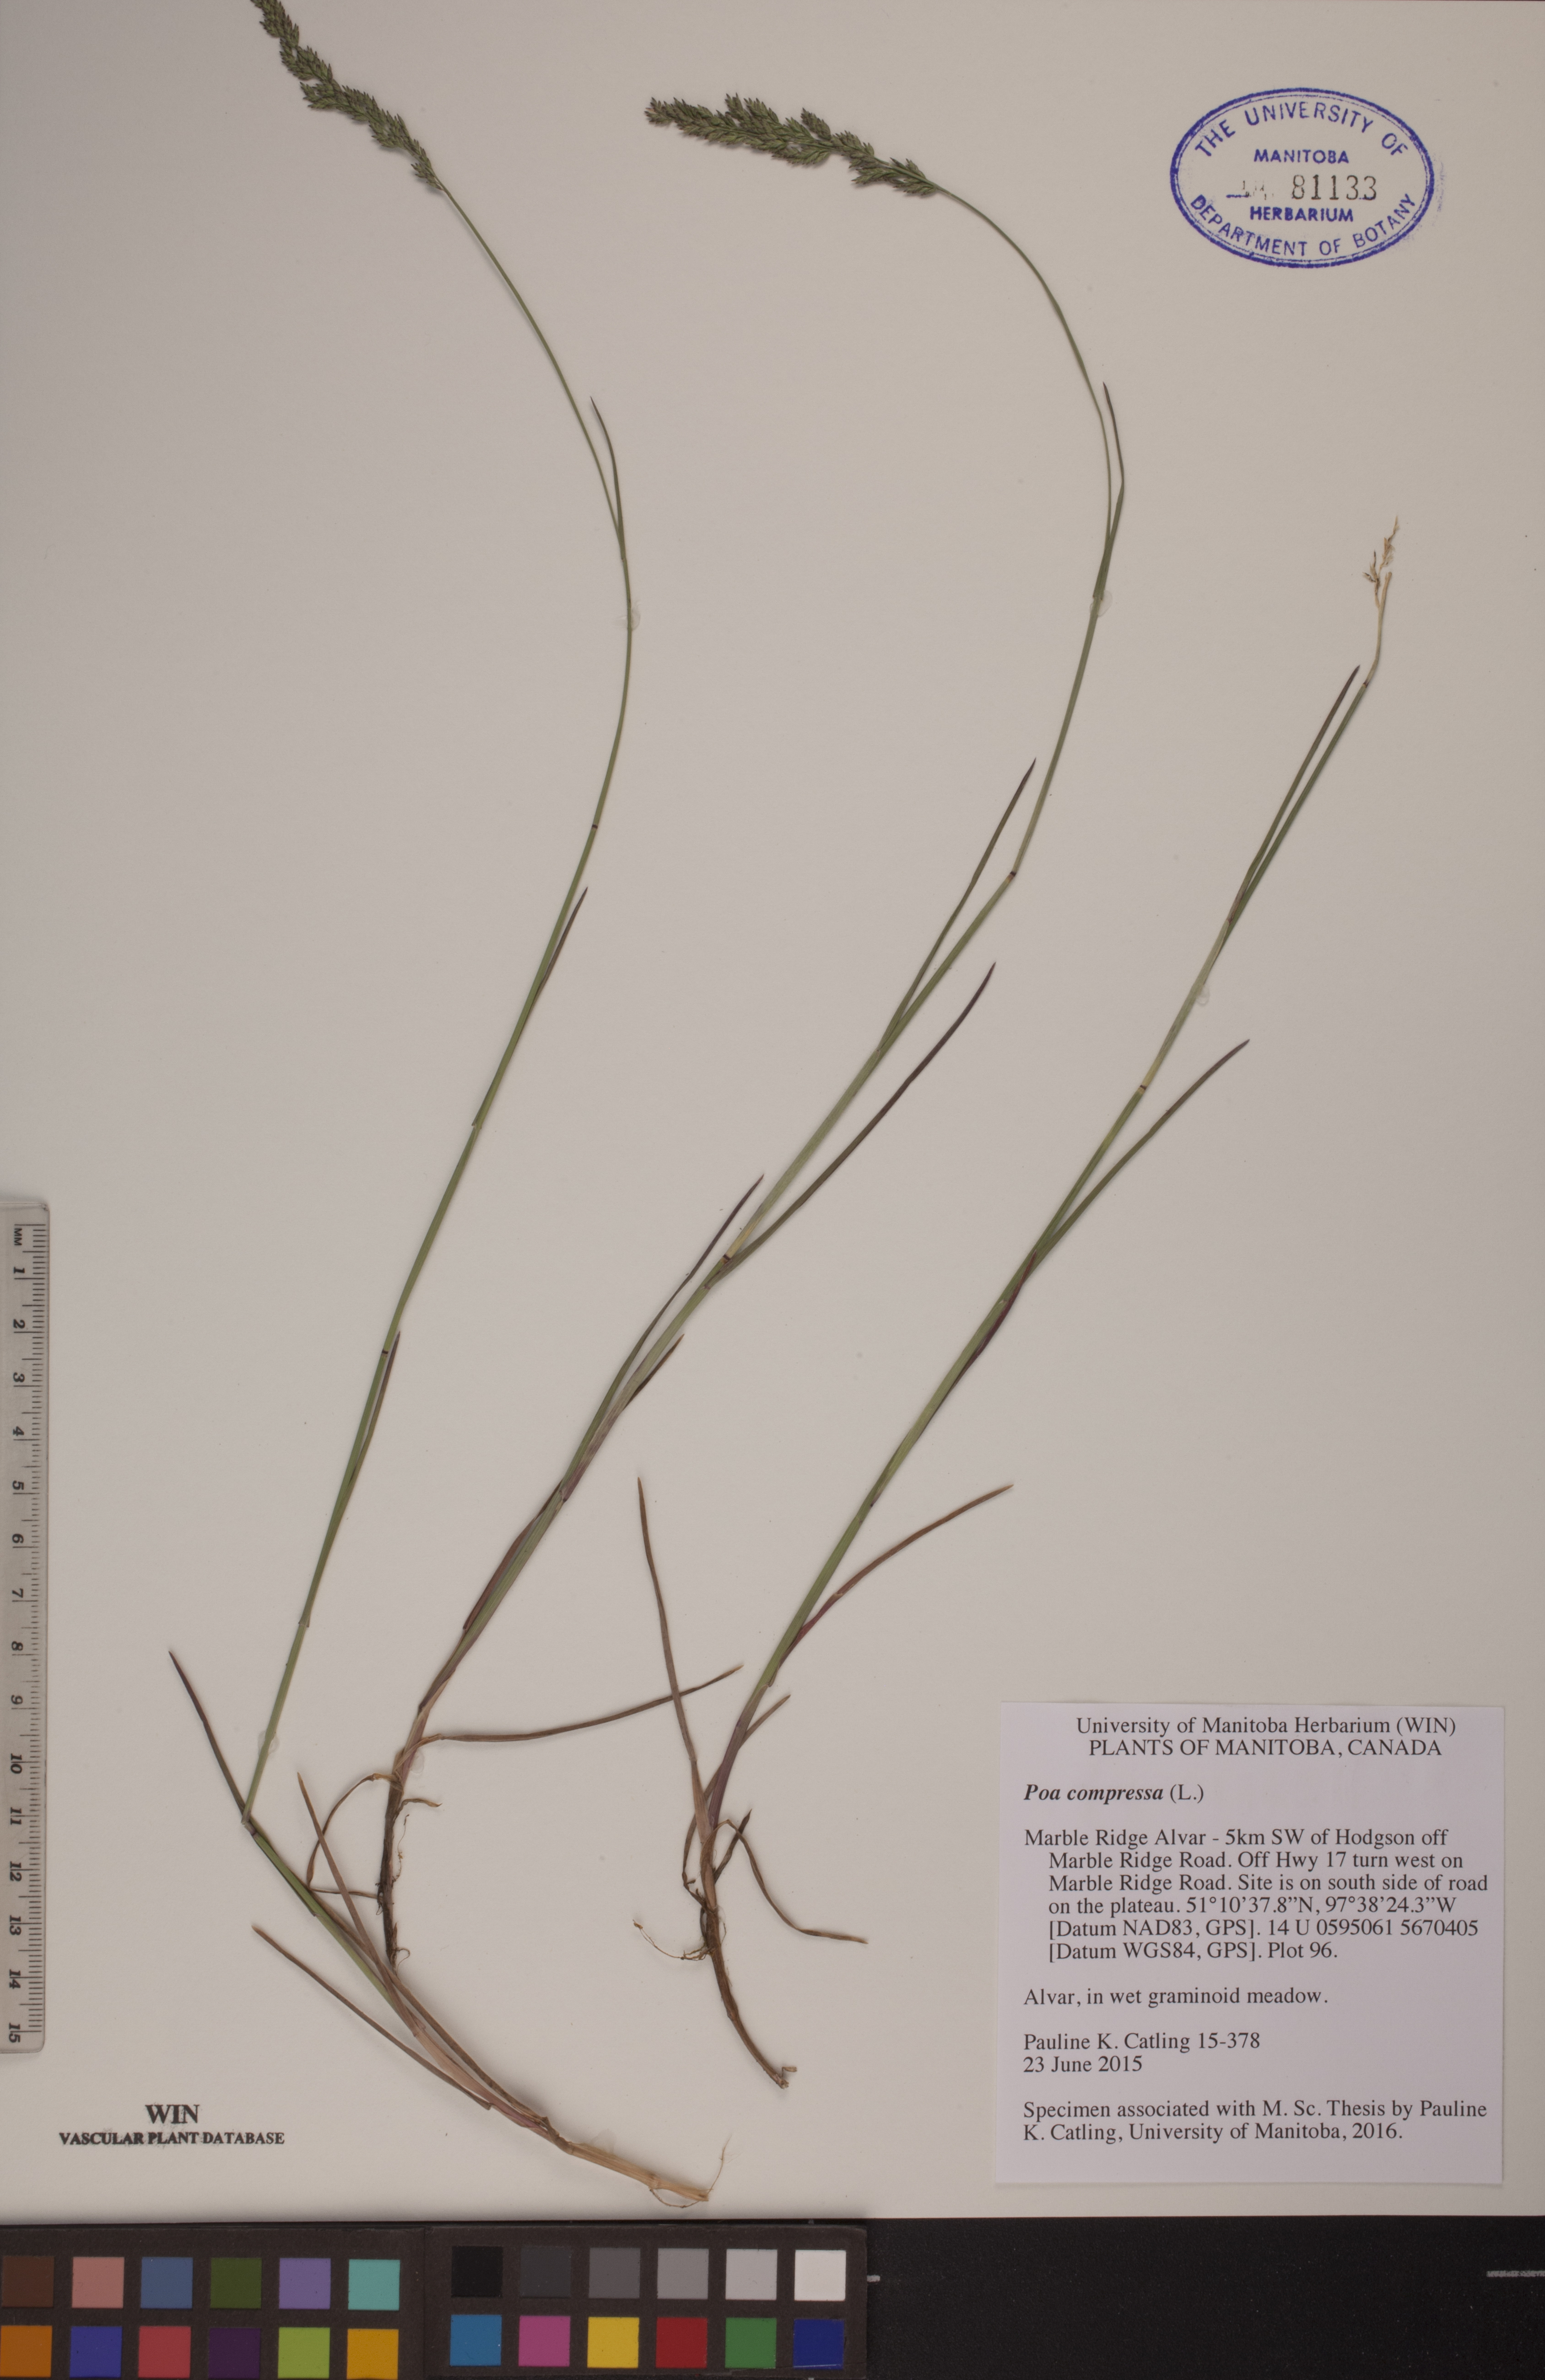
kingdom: Plantae
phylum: Tracheophyta
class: Liliopsida
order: Poales
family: Poaceae
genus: Poa
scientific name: Poa compressa
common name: Canada bluegrass
